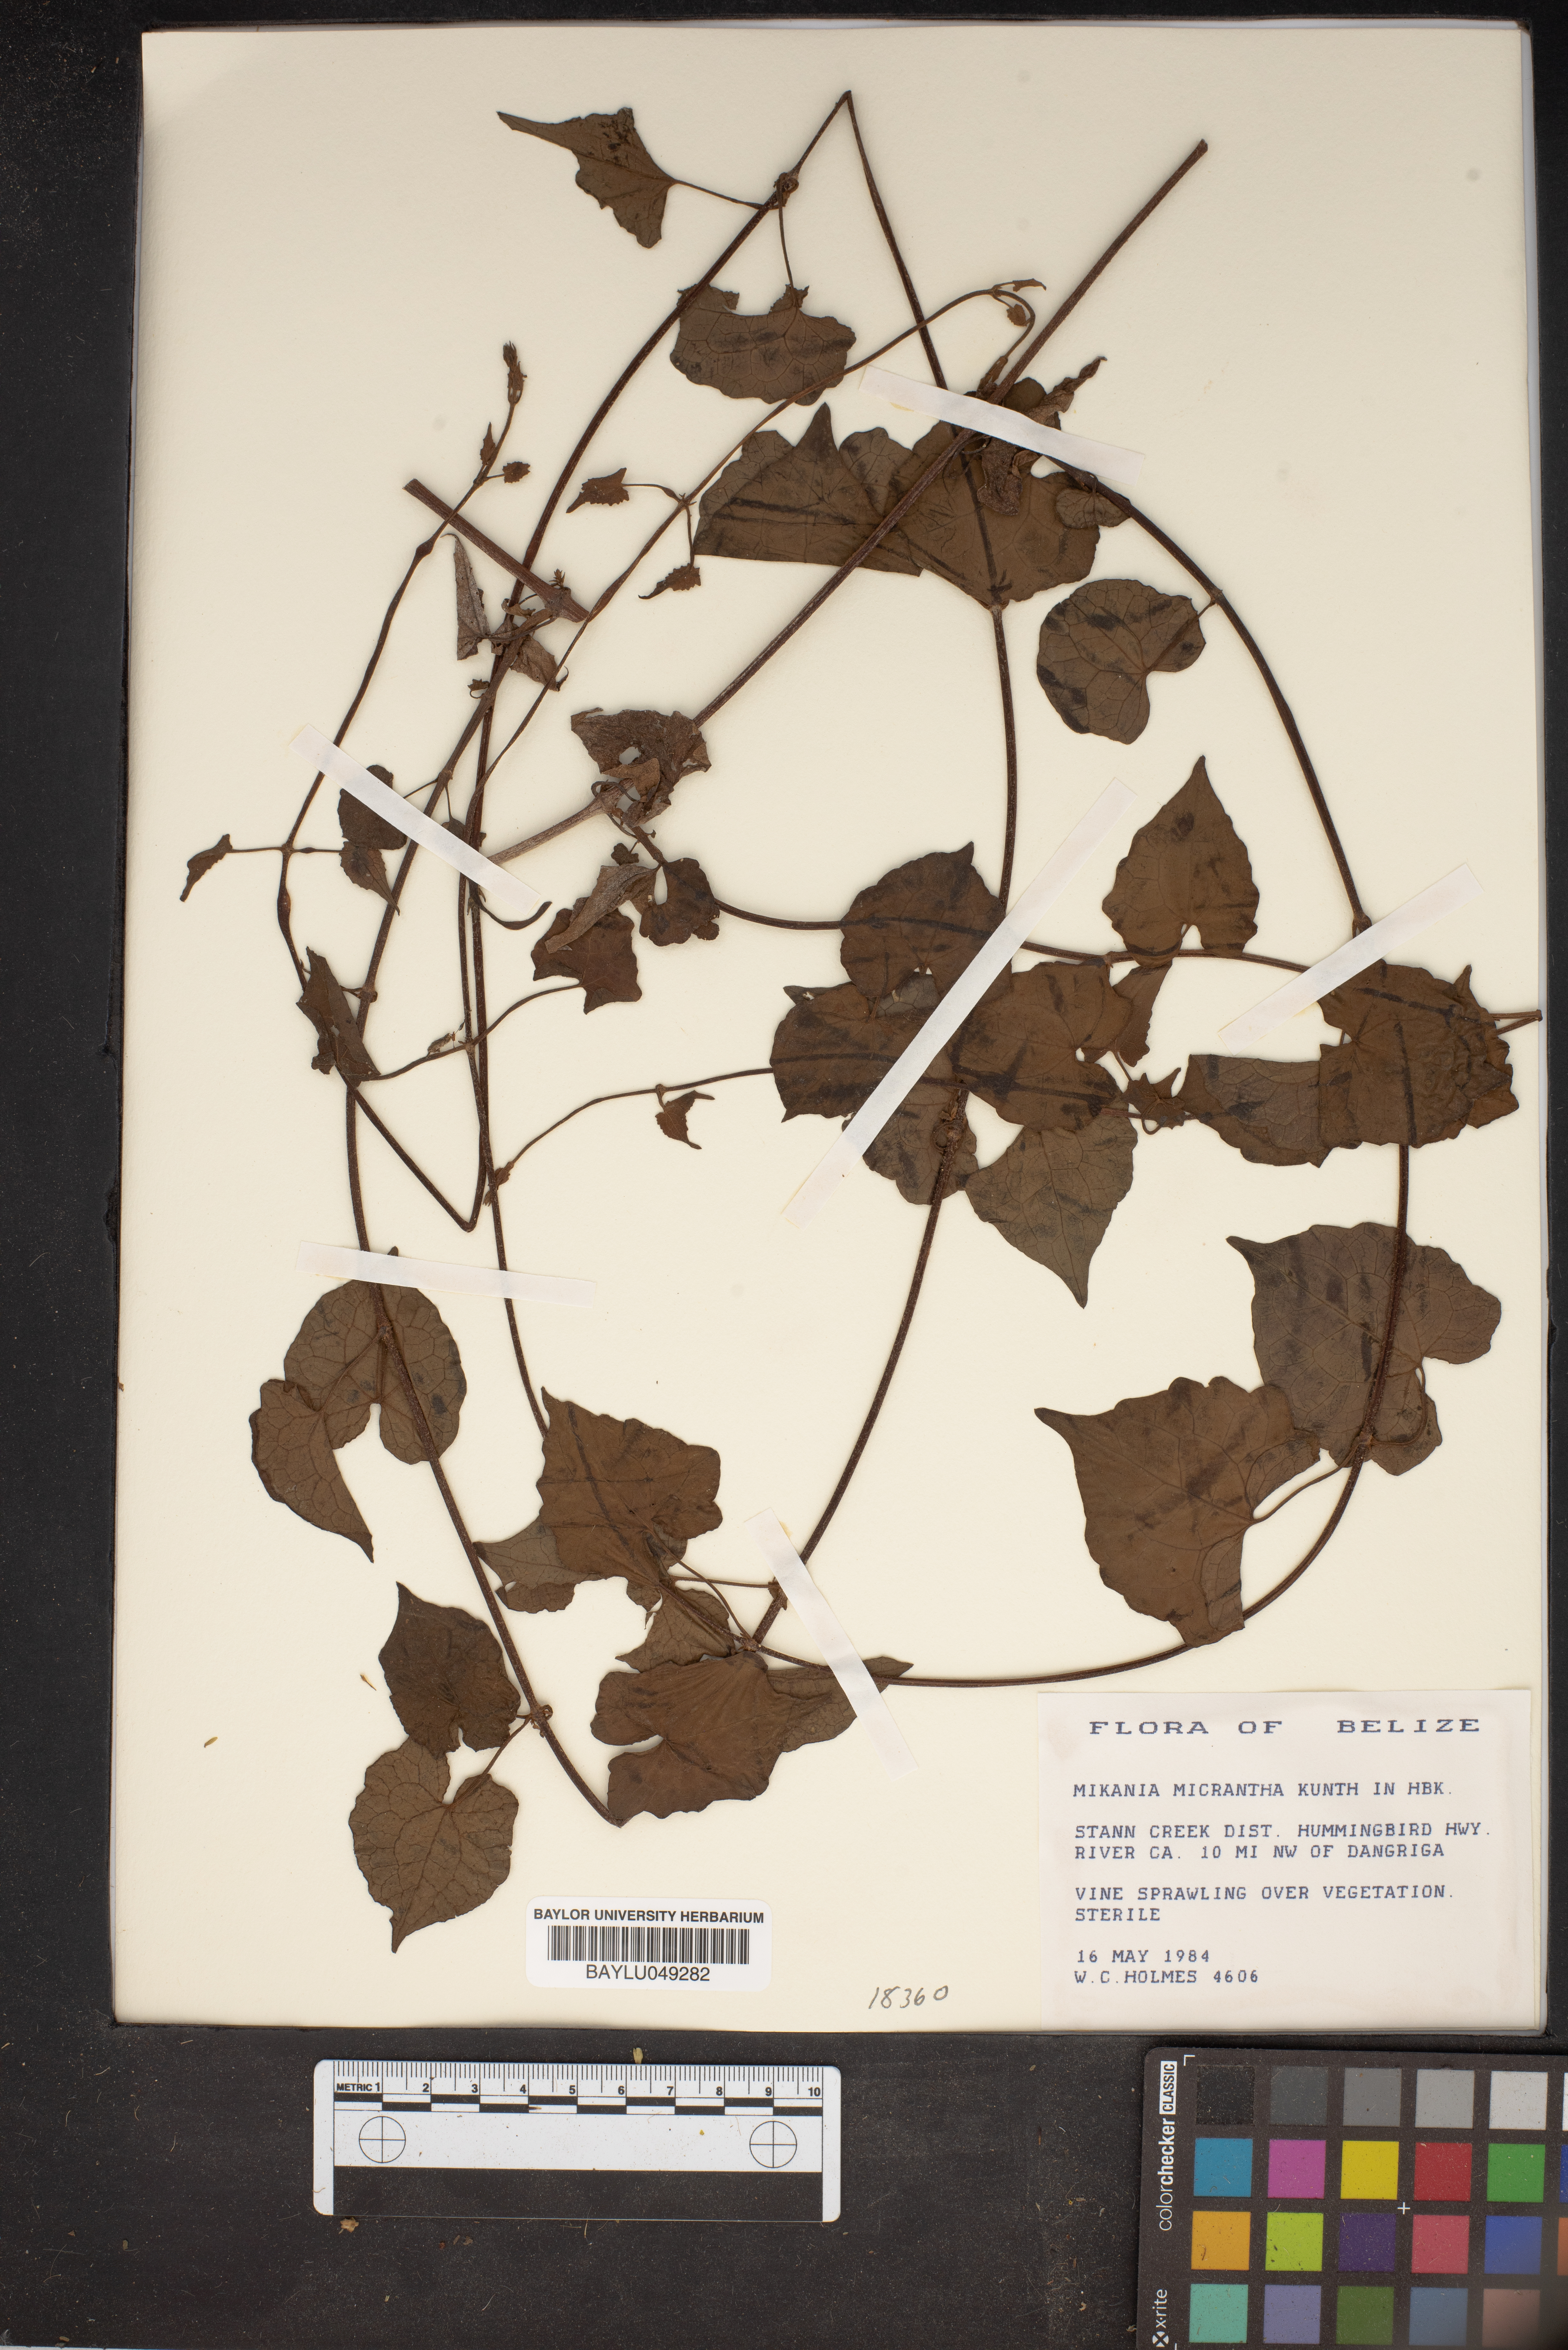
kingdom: Plantae
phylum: Tracheophyta
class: Magnoliopsida
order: Asterales
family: Asteraceae
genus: Mikania
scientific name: Mikania micrantha
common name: Mile-a-minute
